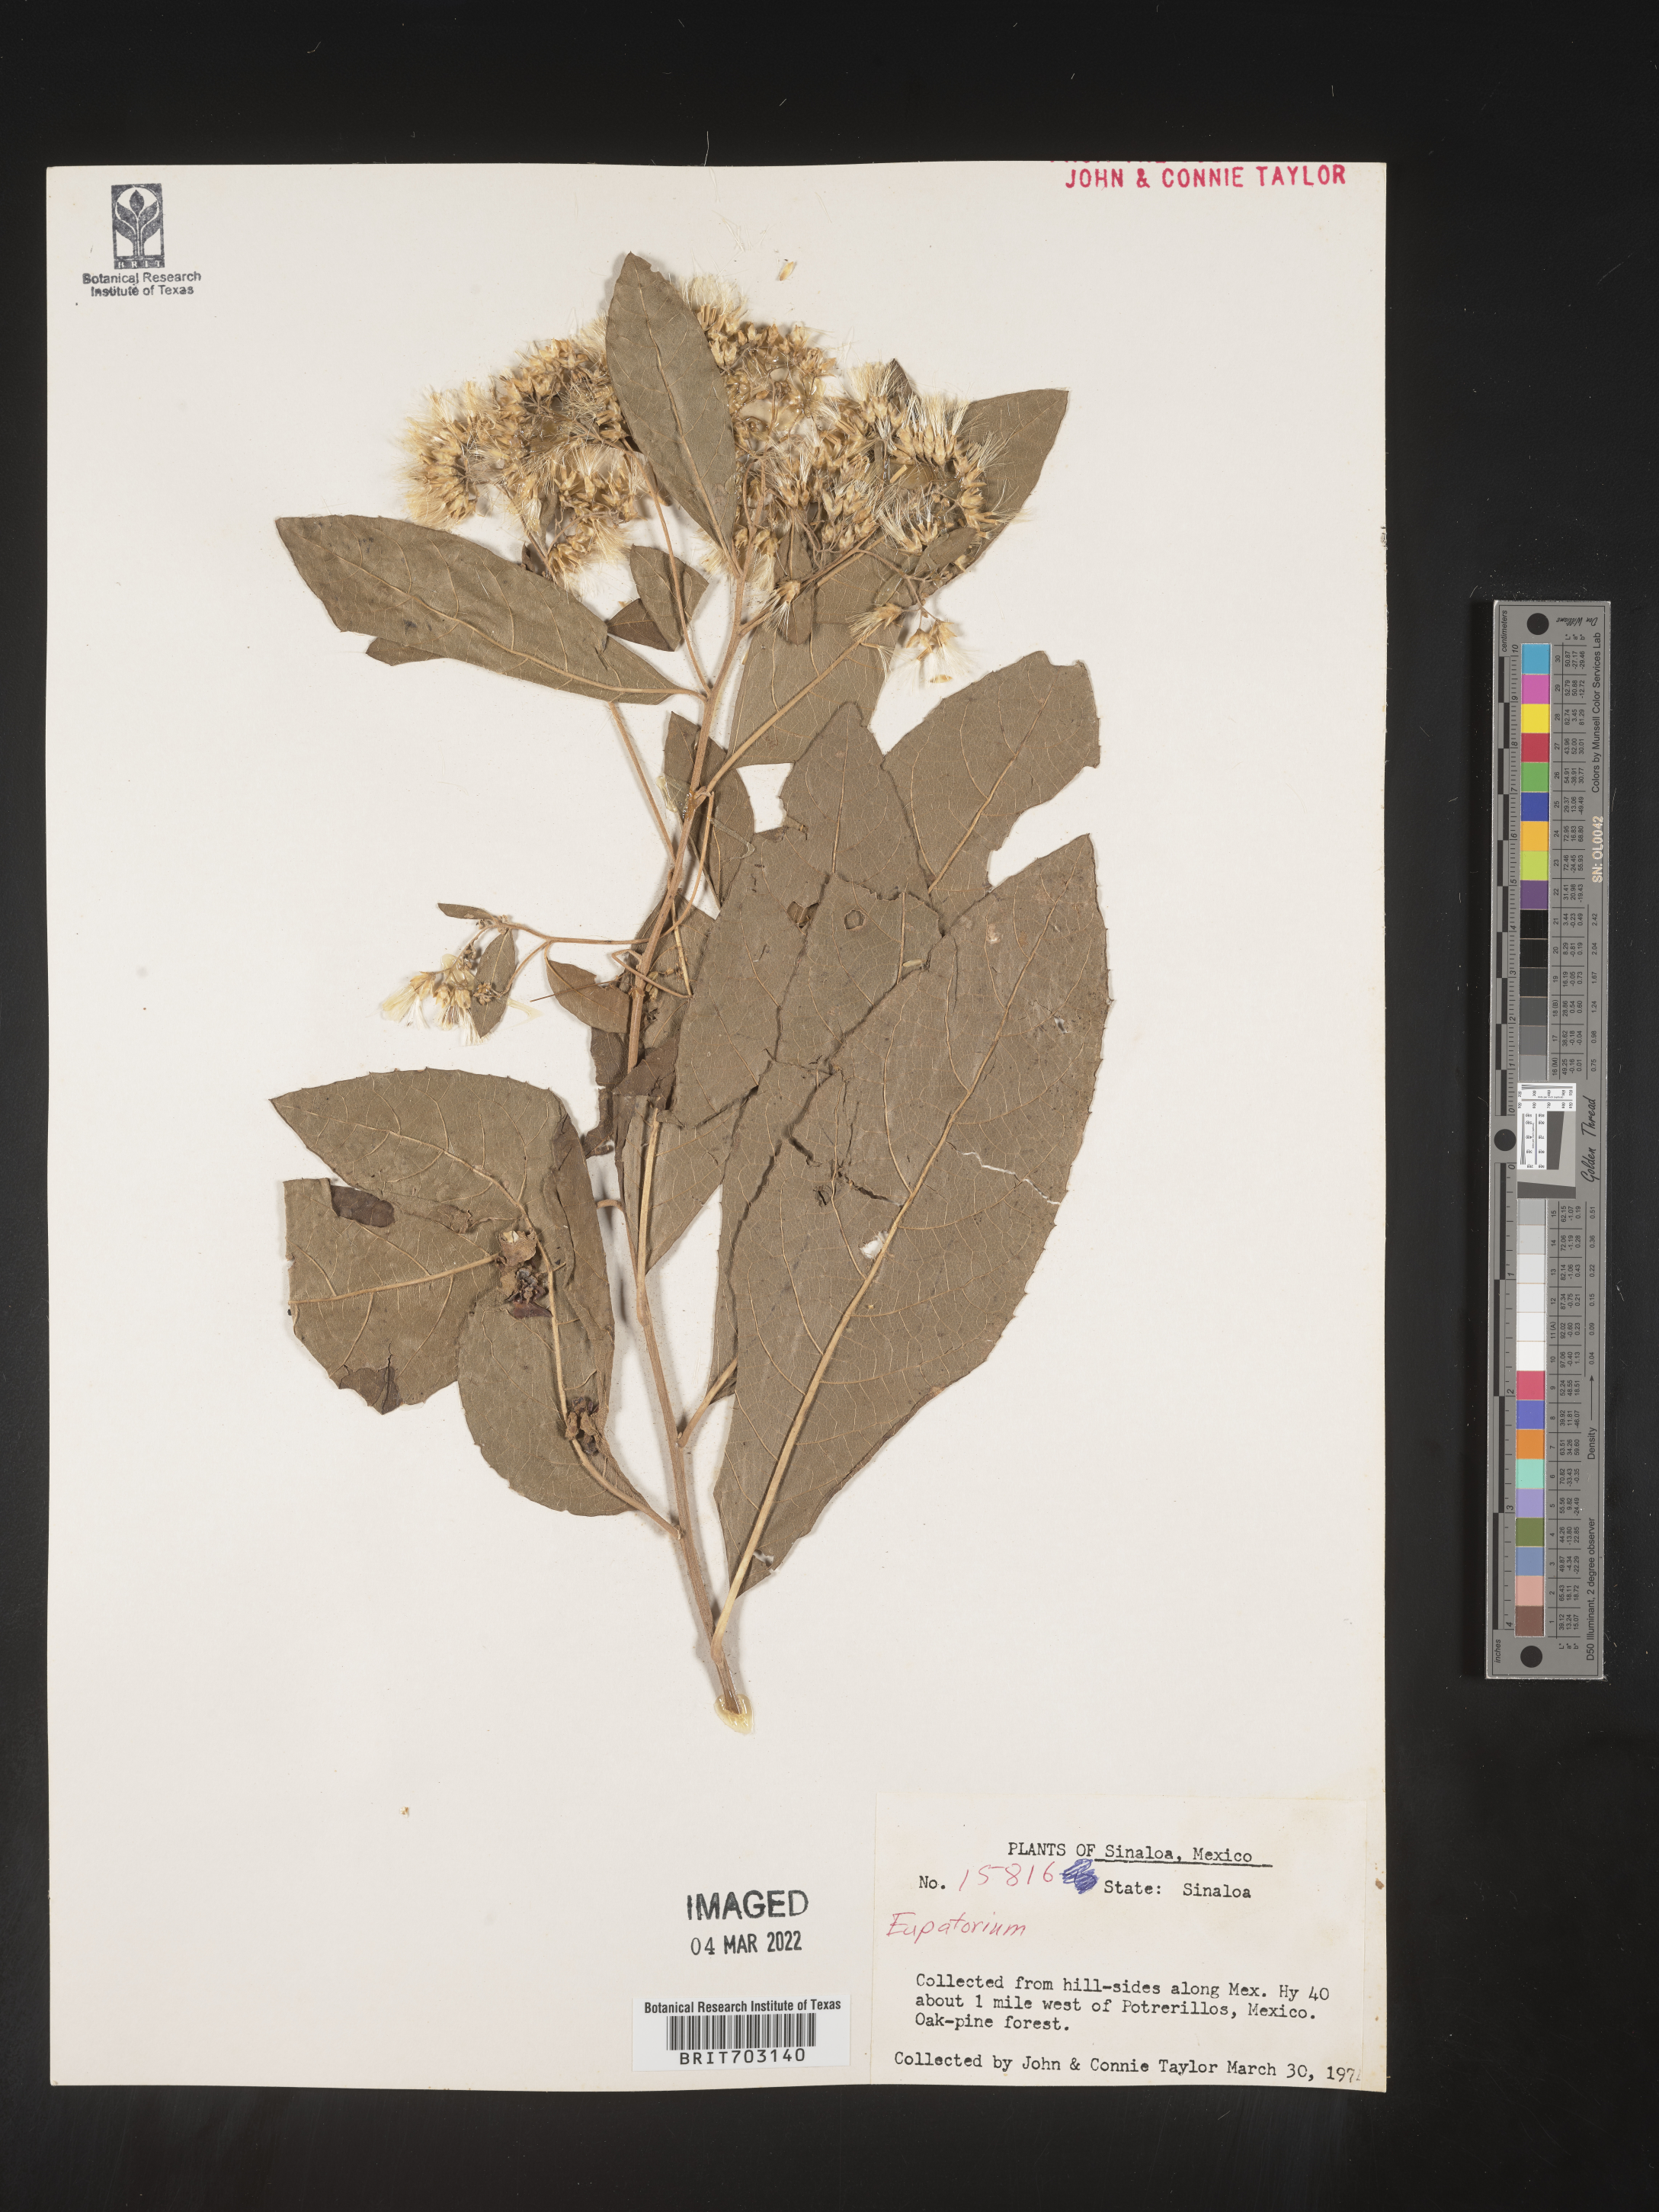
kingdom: Plantae
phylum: Tracheophyta
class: Magnoliopsida
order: Asterales
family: Asteraceae
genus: Eupatorium
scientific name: Eupatorium
